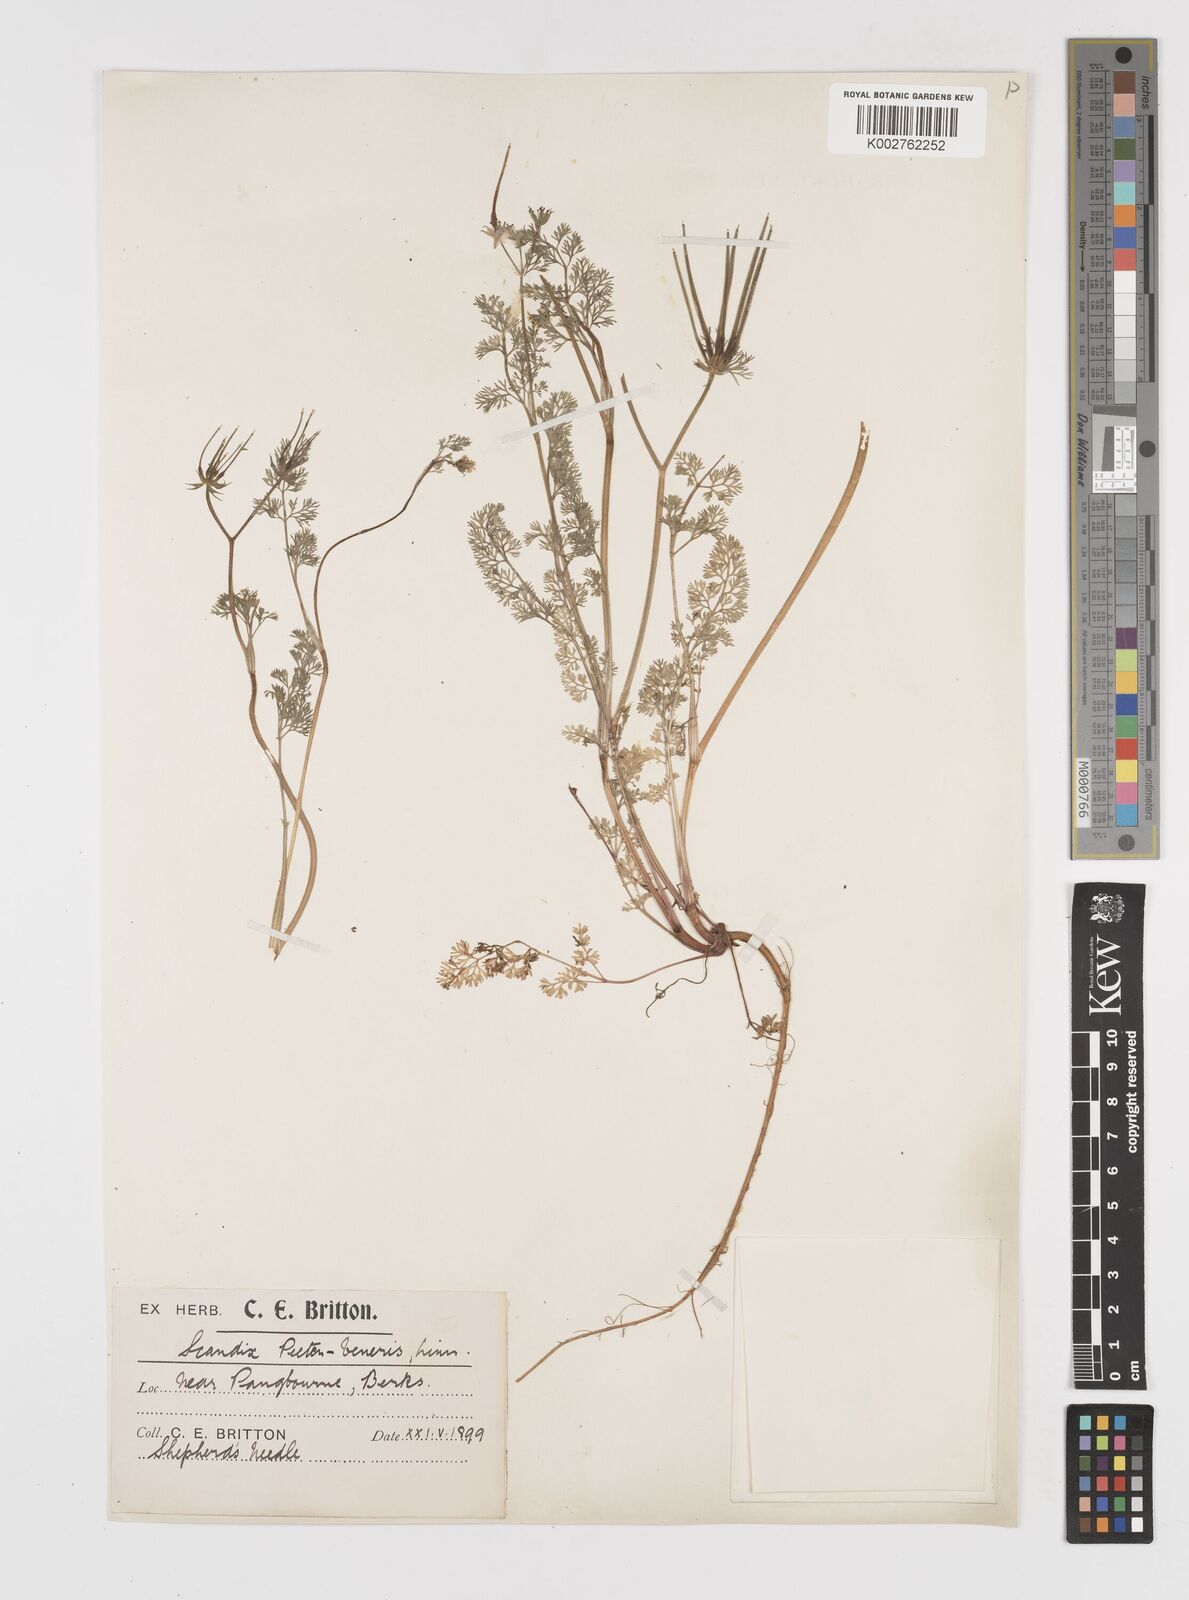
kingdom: Plantae
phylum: Tracheophyta
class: Magnoliopsida
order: Apiales
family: Apiaceae
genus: Scandix
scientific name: Scandix pecten-veneris
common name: Shepherd's-needle
